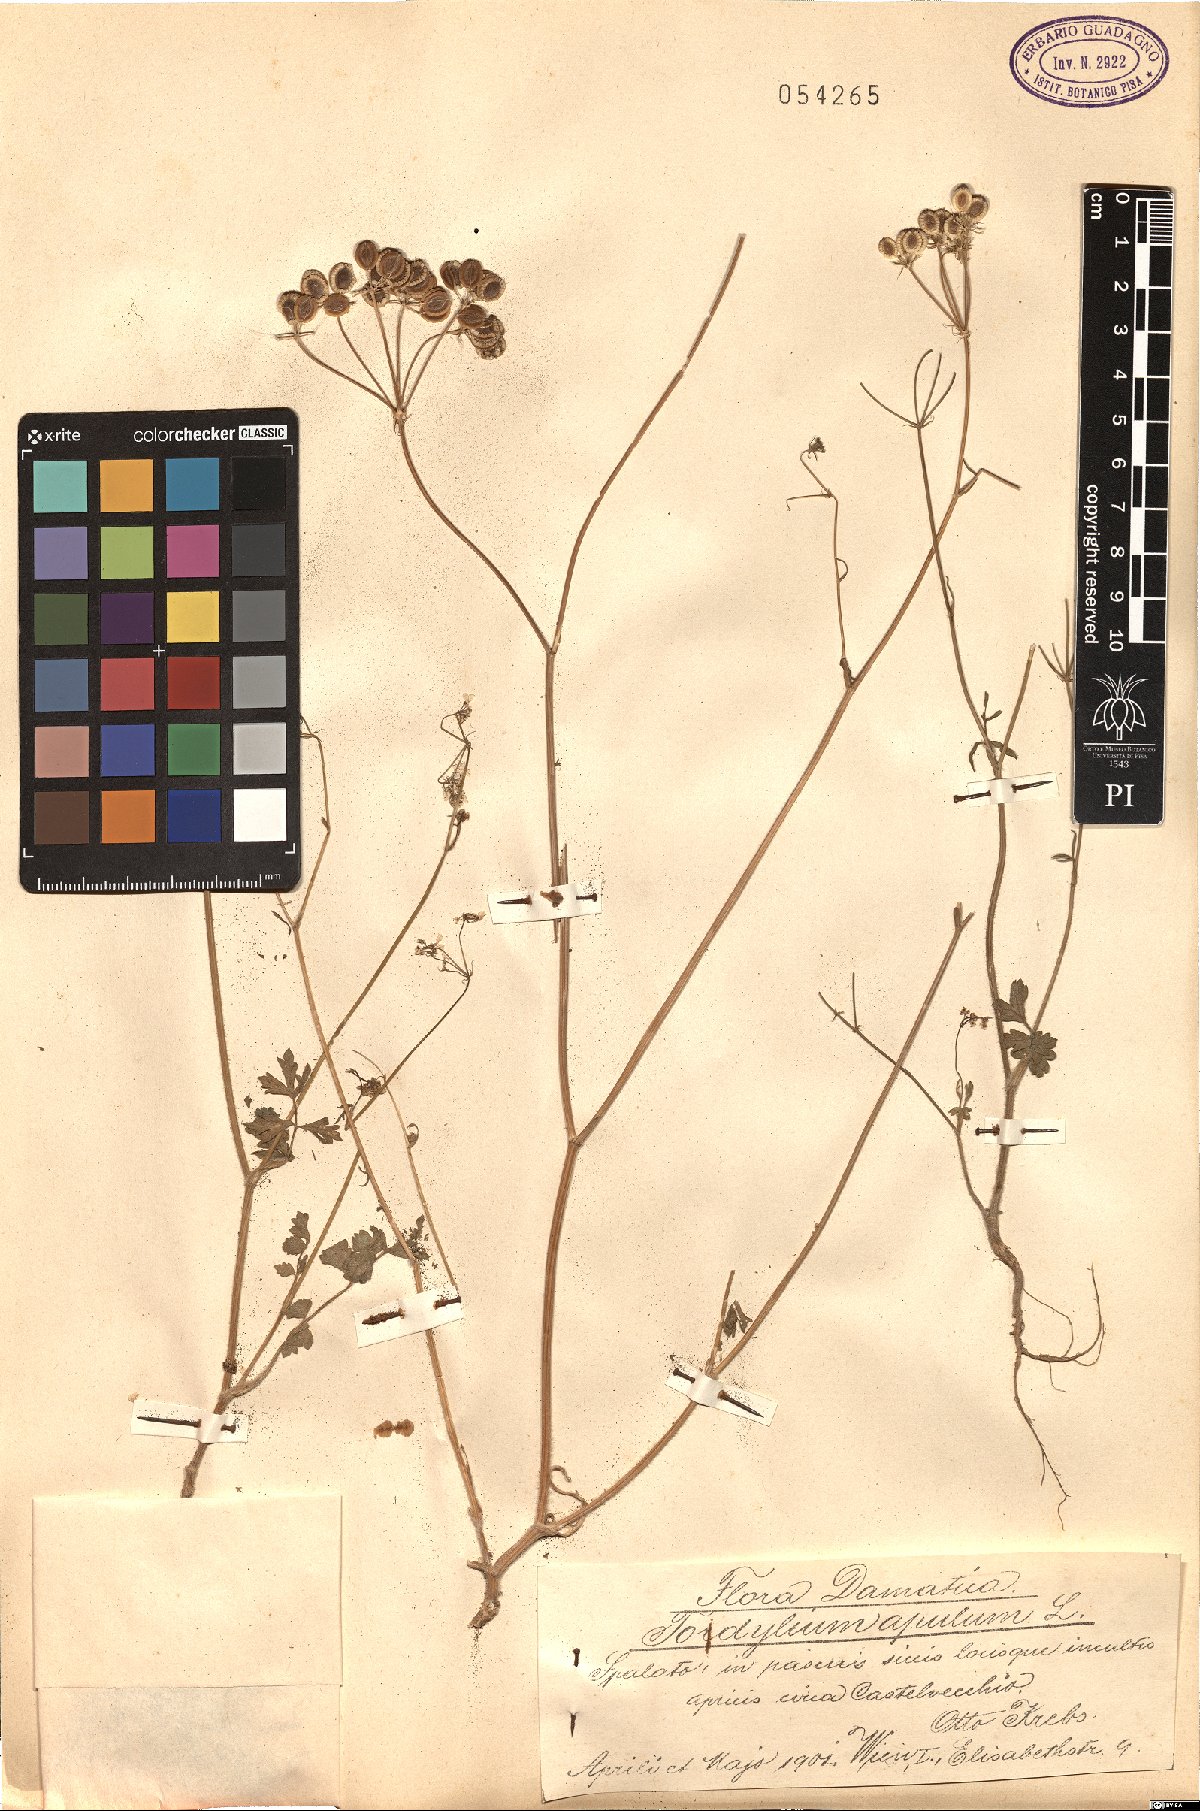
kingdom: Plantae
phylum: Tracheophyta
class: Magnoliopsida
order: Apiales
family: Apiaceae
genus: Tordylium
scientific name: Tordylium apulum
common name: Mediterranean hartwort
